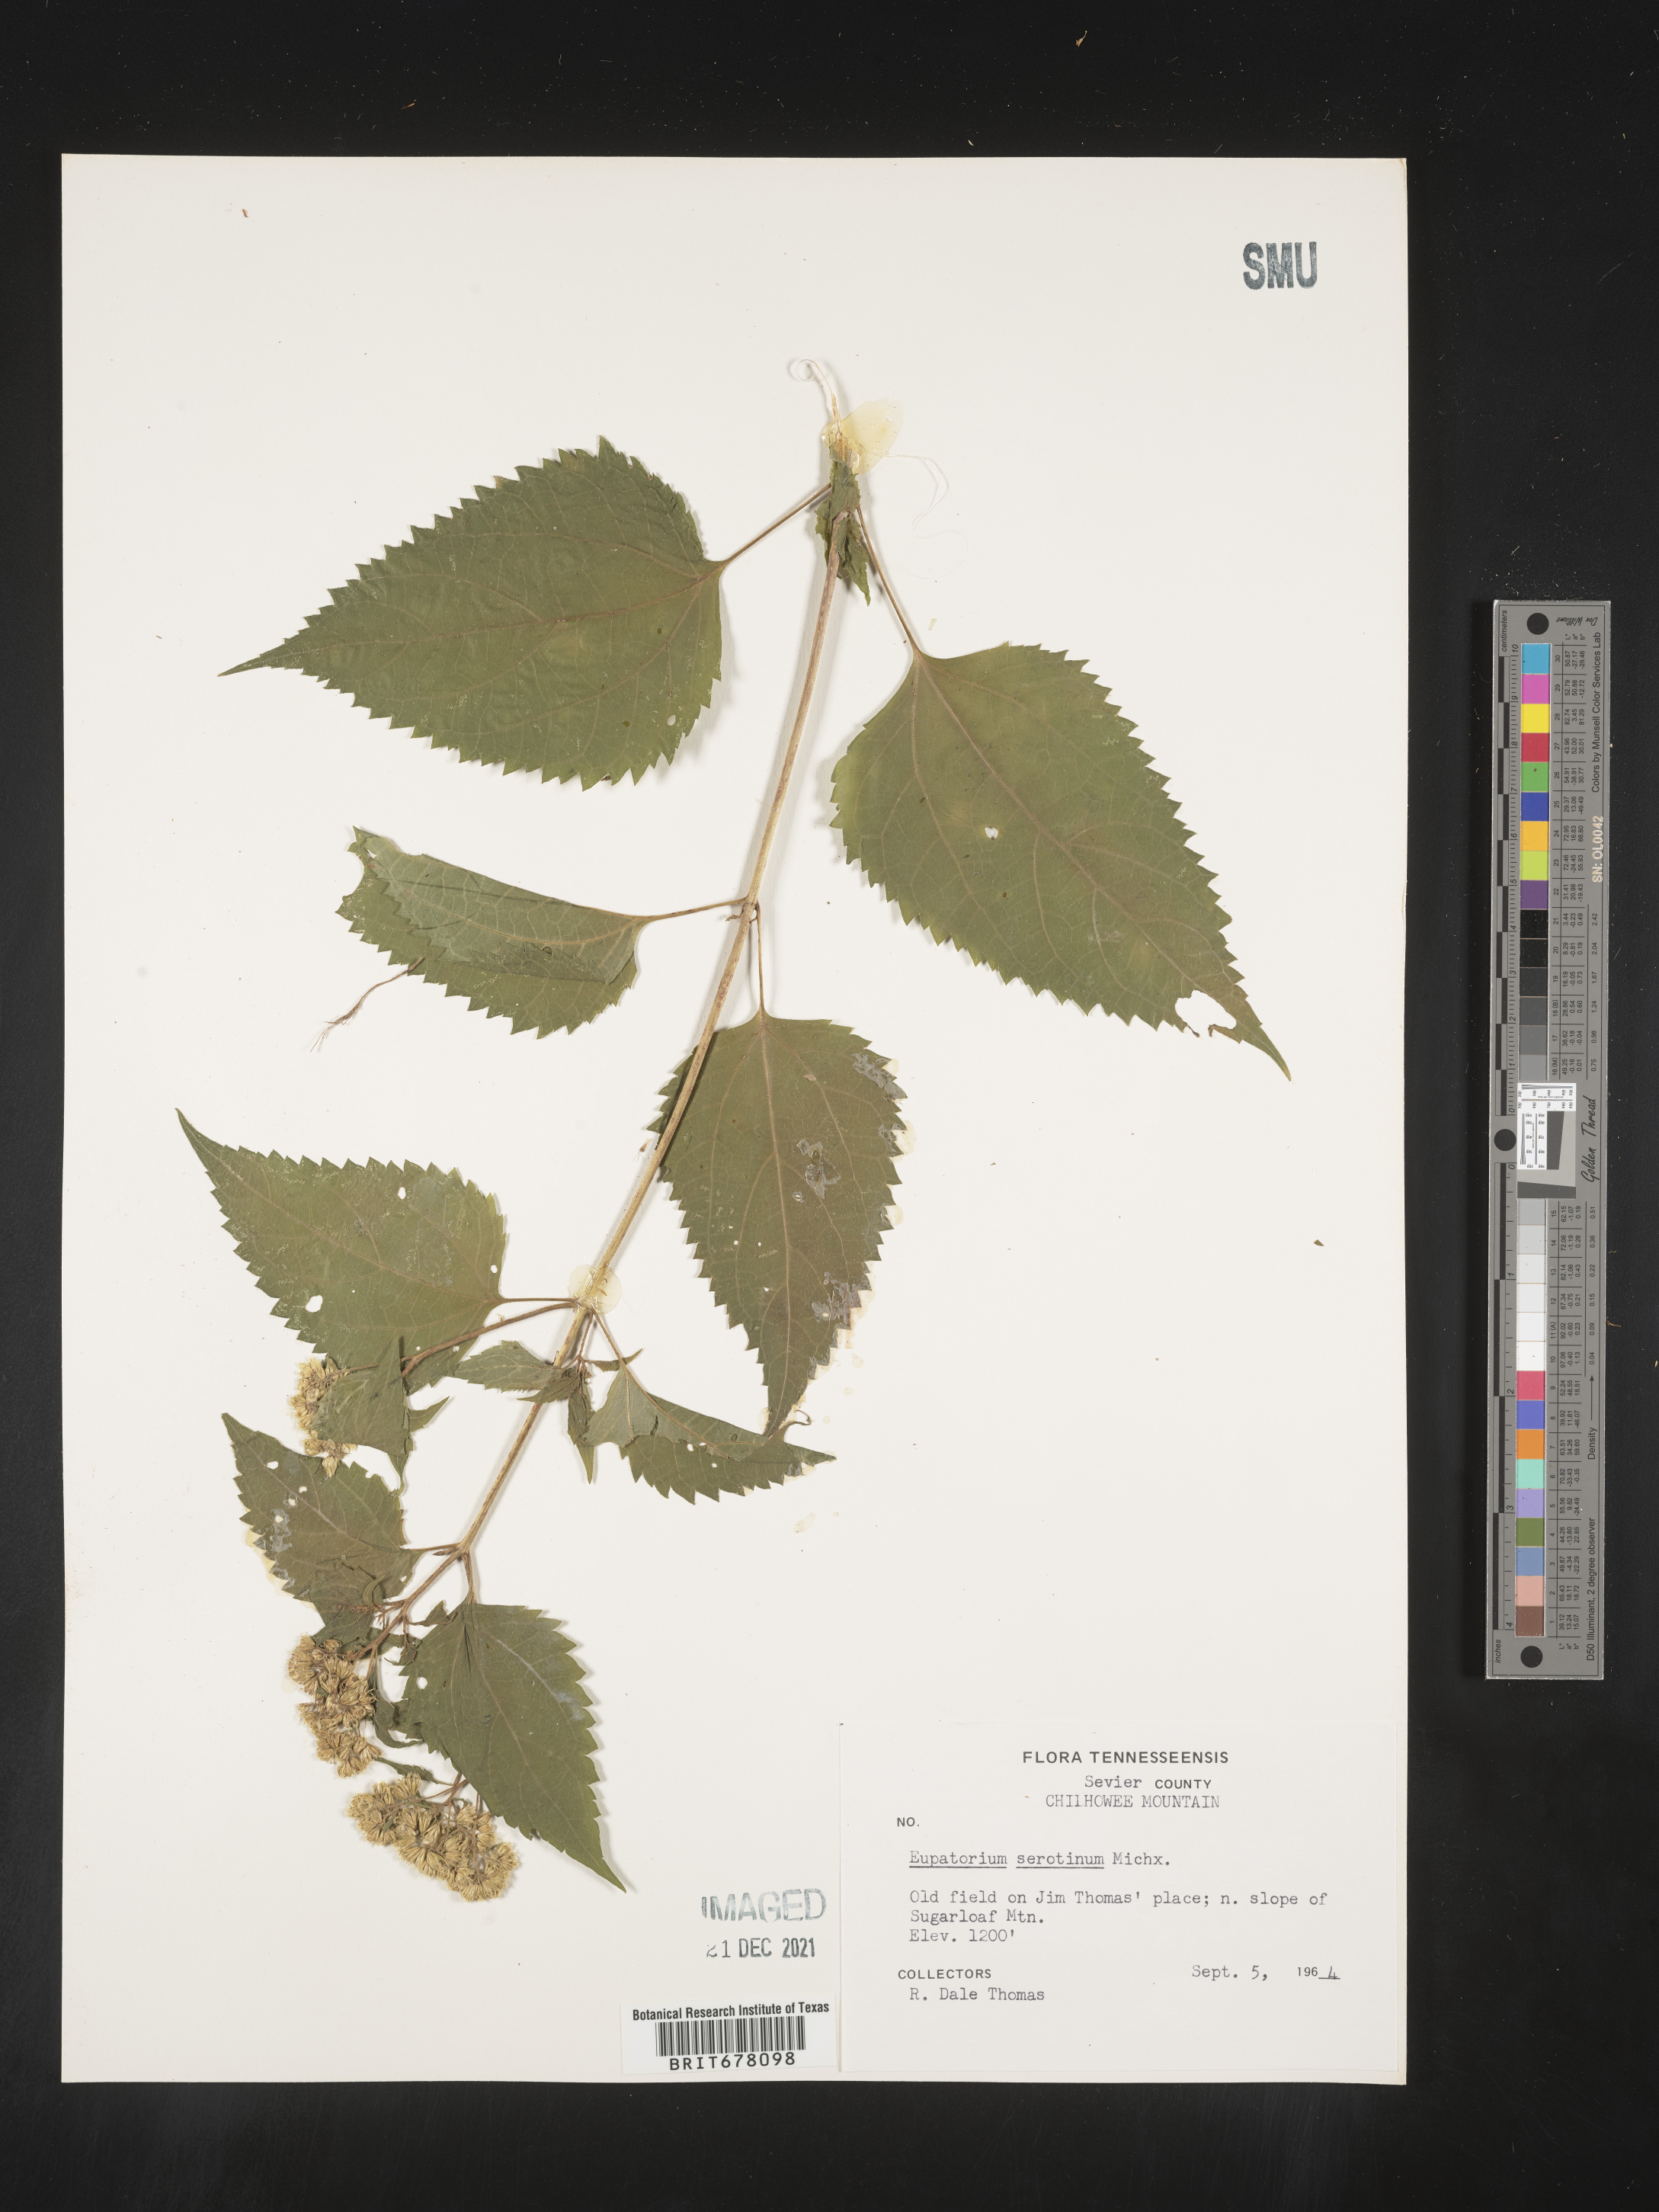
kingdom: Plantae
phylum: Tracheophyta
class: Magnoliopsida
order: Asterales
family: Asteraceae
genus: Eupatorium
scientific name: Eupatorium
